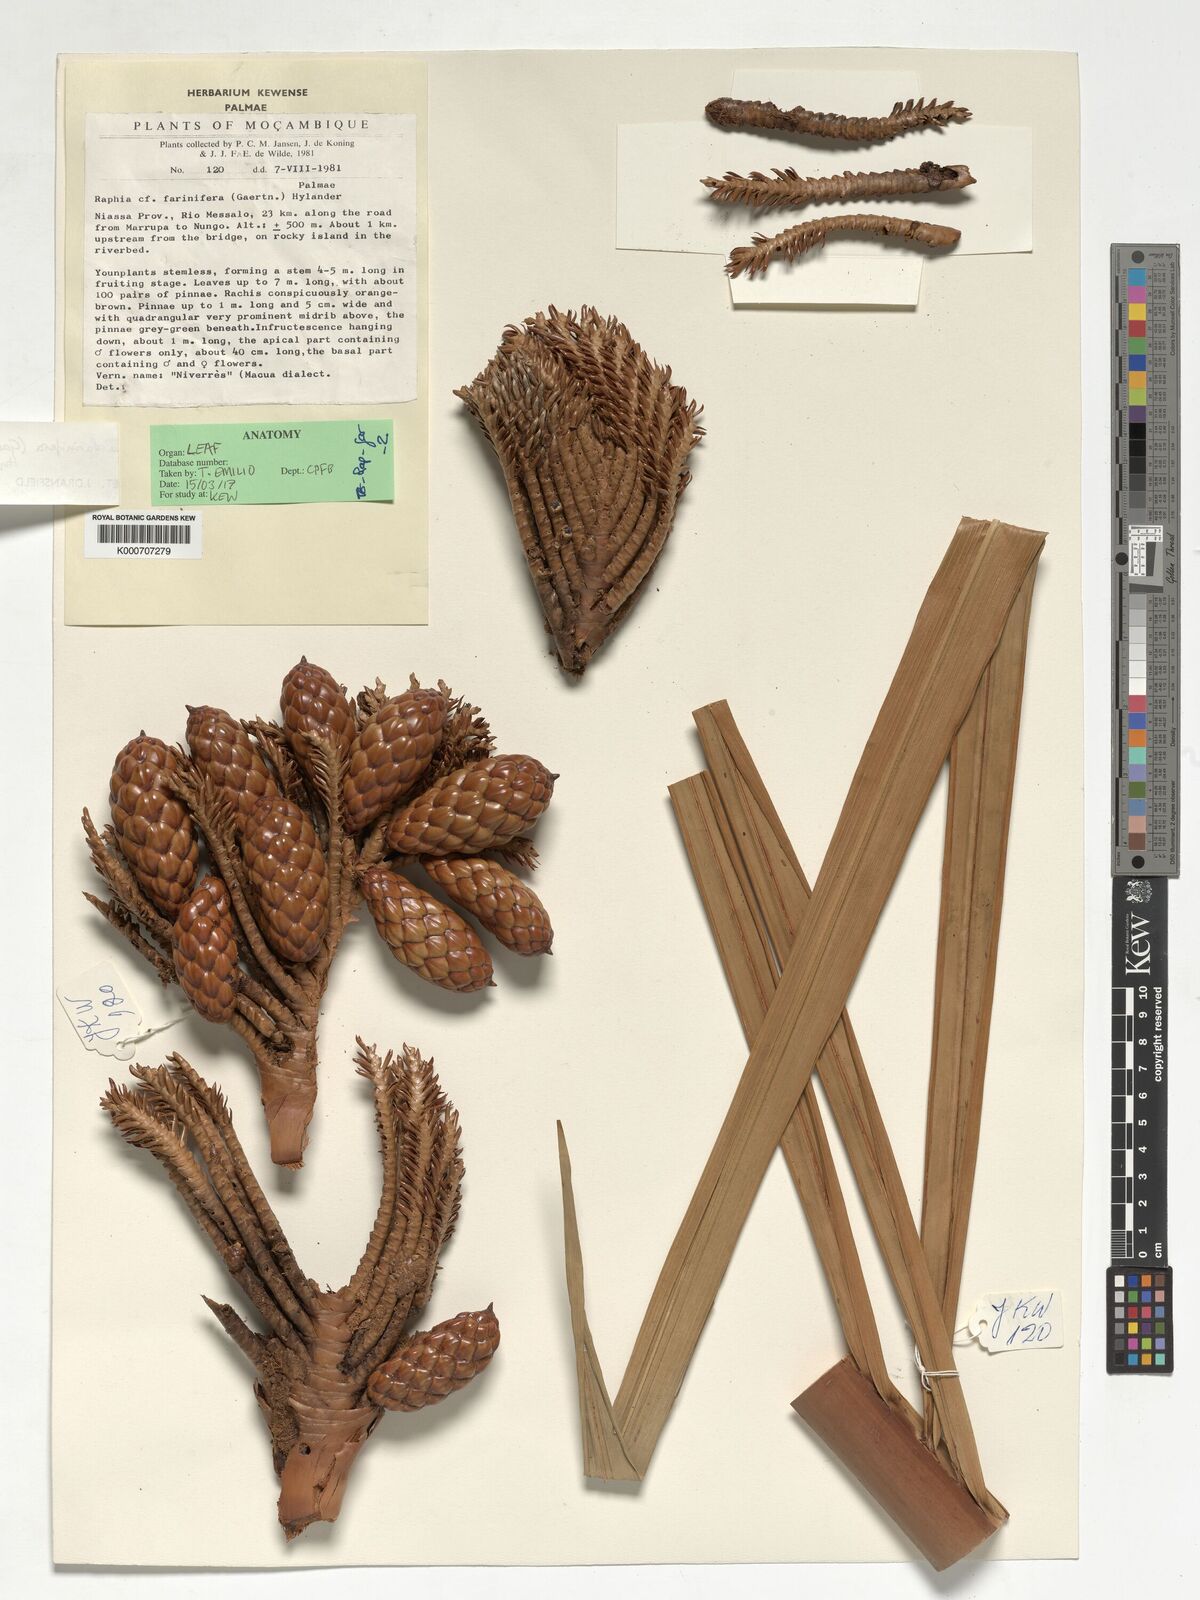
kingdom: Plantae
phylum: Tracheophyta
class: Liliopsida
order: Arecales
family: Arecaceae
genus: Raphia
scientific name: Raphia farinifera
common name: Raphia palm
